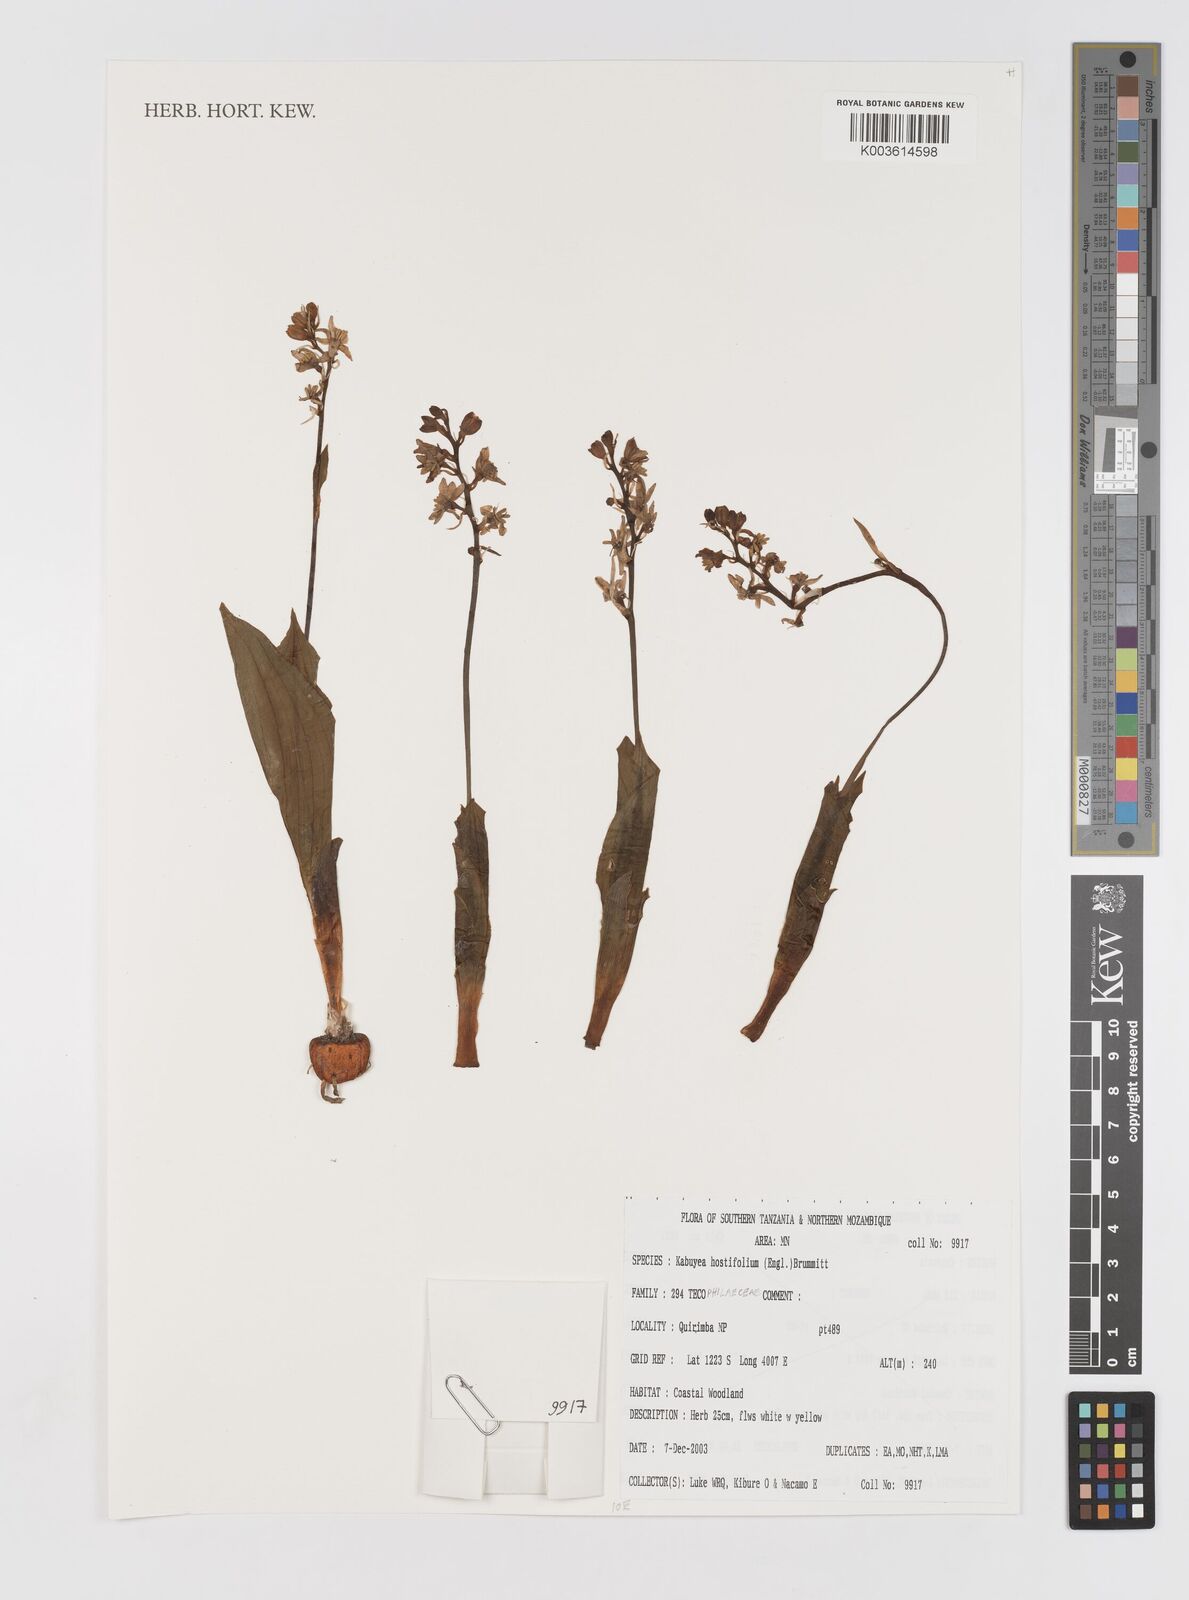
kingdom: Plantae
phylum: Tracheophyta
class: Liliopsida
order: Asparagales
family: Tecophilaeaceae
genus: Kabuyea
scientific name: Kabuyea hostifolia
